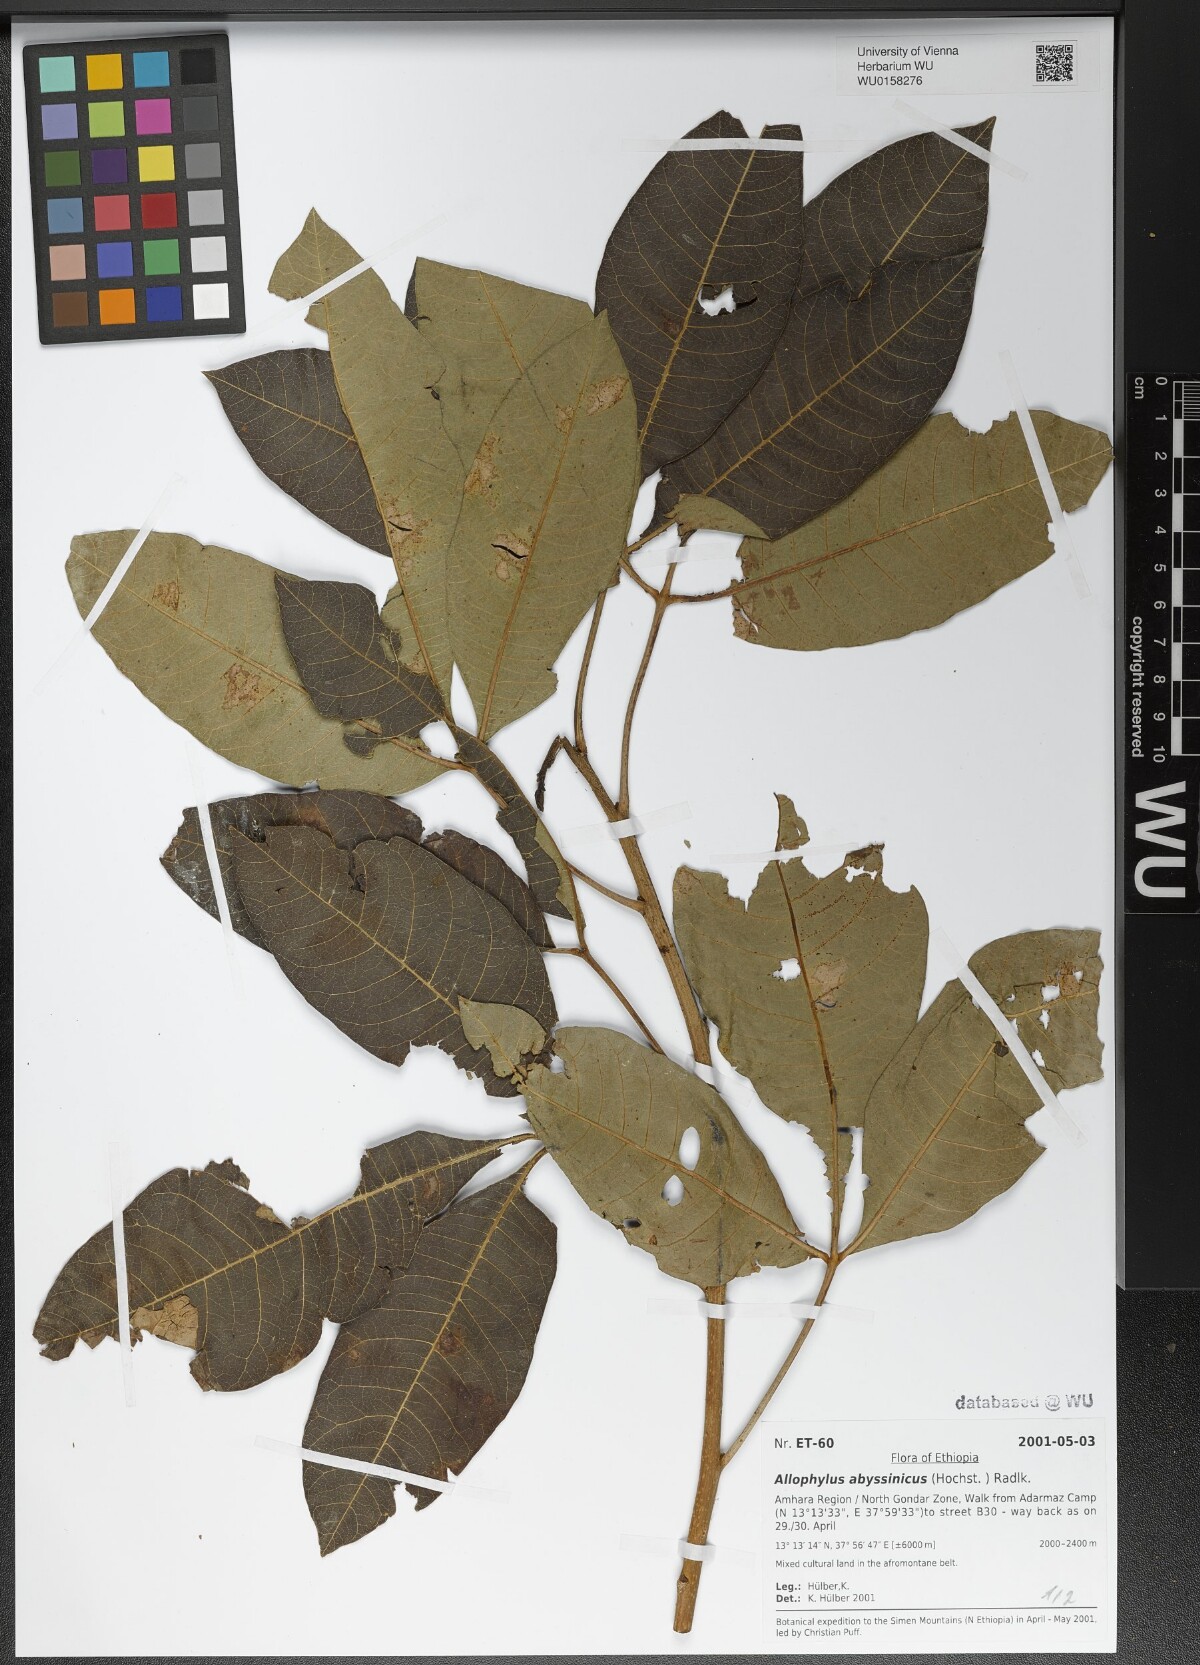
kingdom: Plantae
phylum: Tracheophyta
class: Magnoliopsida
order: Sapindales
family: Sapindaceae
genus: Allophylus
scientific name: Allophylus abyssinicus
